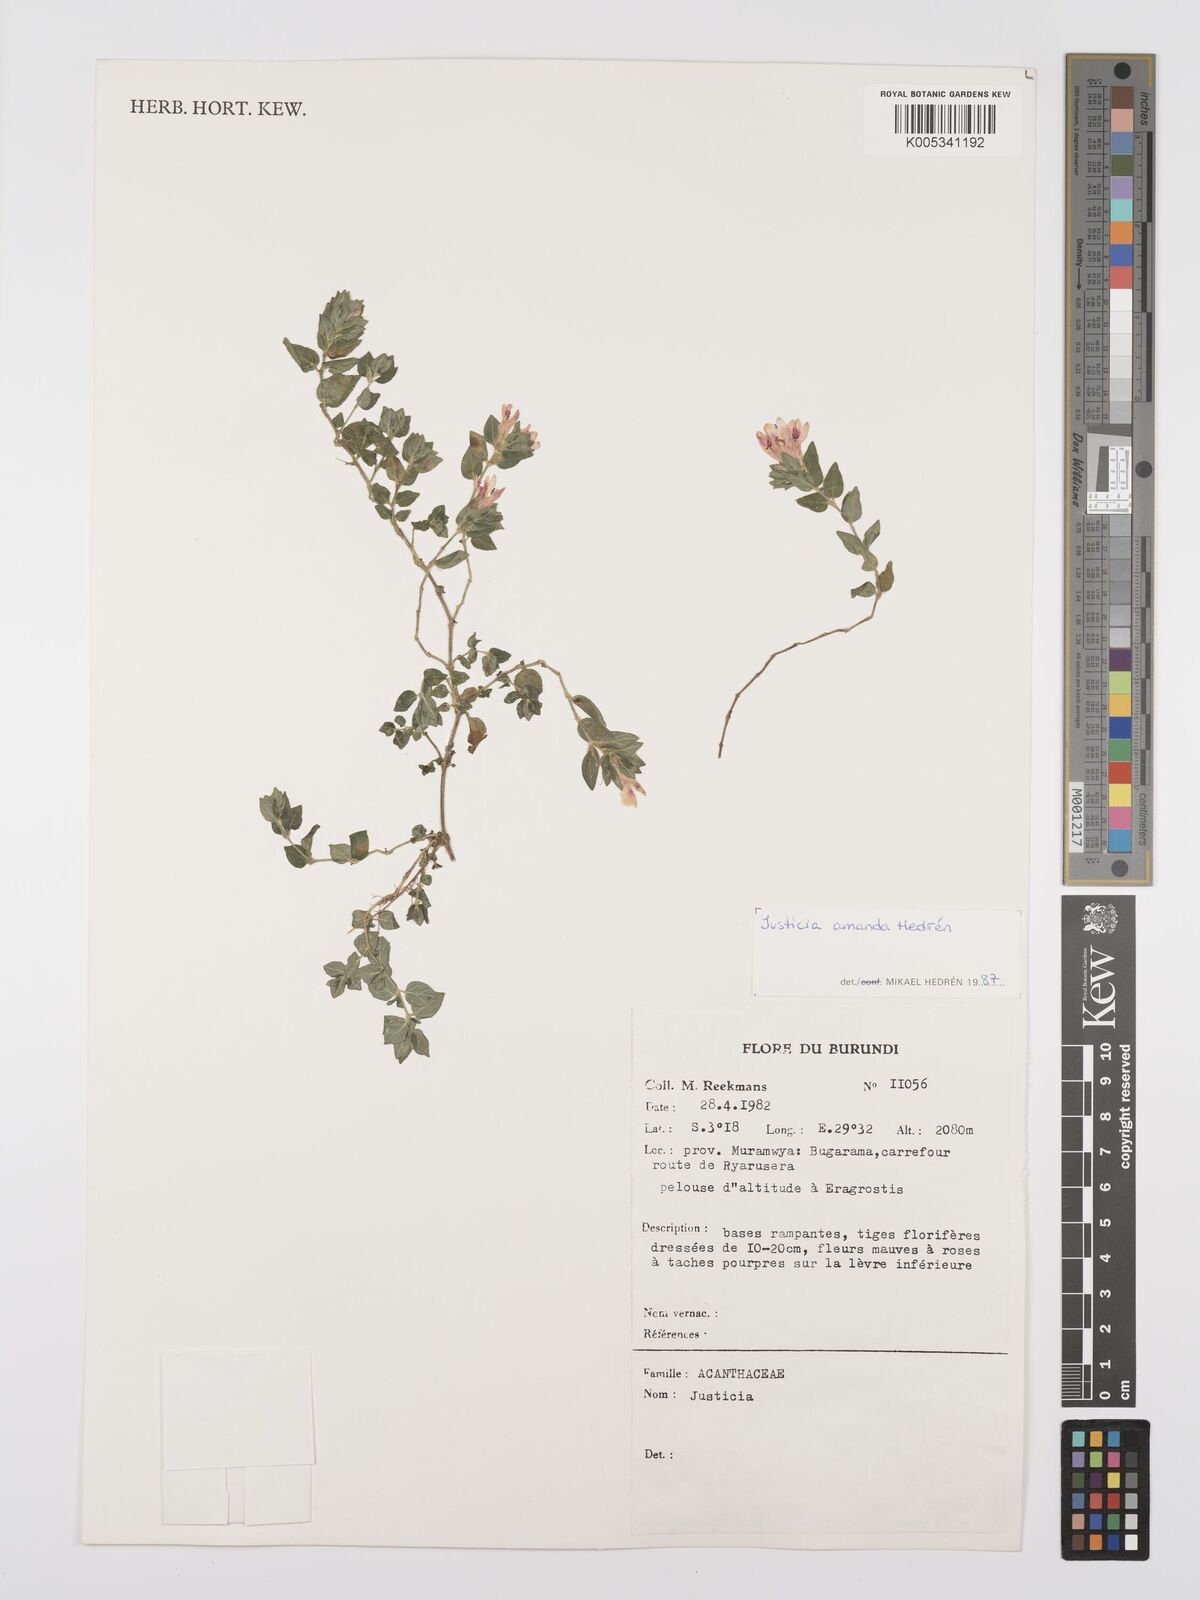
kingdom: Plantae
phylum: Tracheophyta
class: Magnoliopsida
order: Lamiales
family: Acanthaceae
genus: Justicia
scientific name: Justicia amanda
